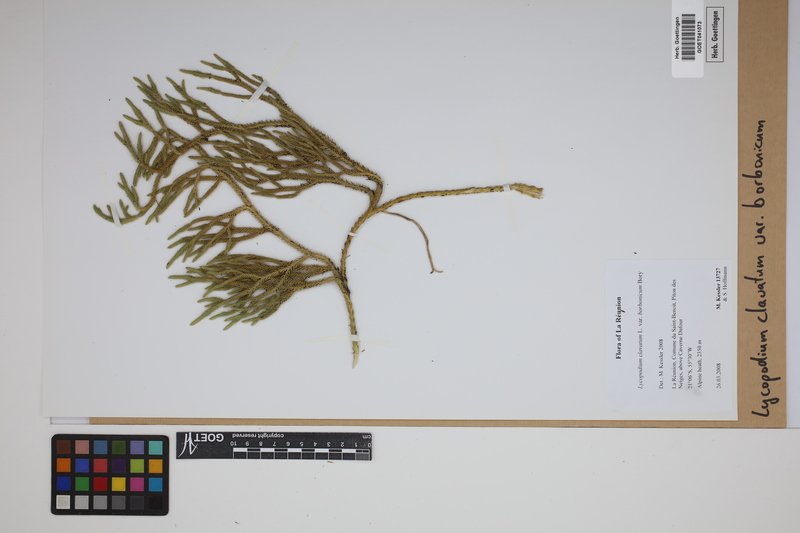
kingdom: Plantae
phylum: Tracheophyta
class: Lycopodiopsida
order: Lycopodiales
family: Lycopodiaceae
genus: Lycopodium
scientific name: Lycopodium clavatum
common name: Stag's-horn clubmoss
